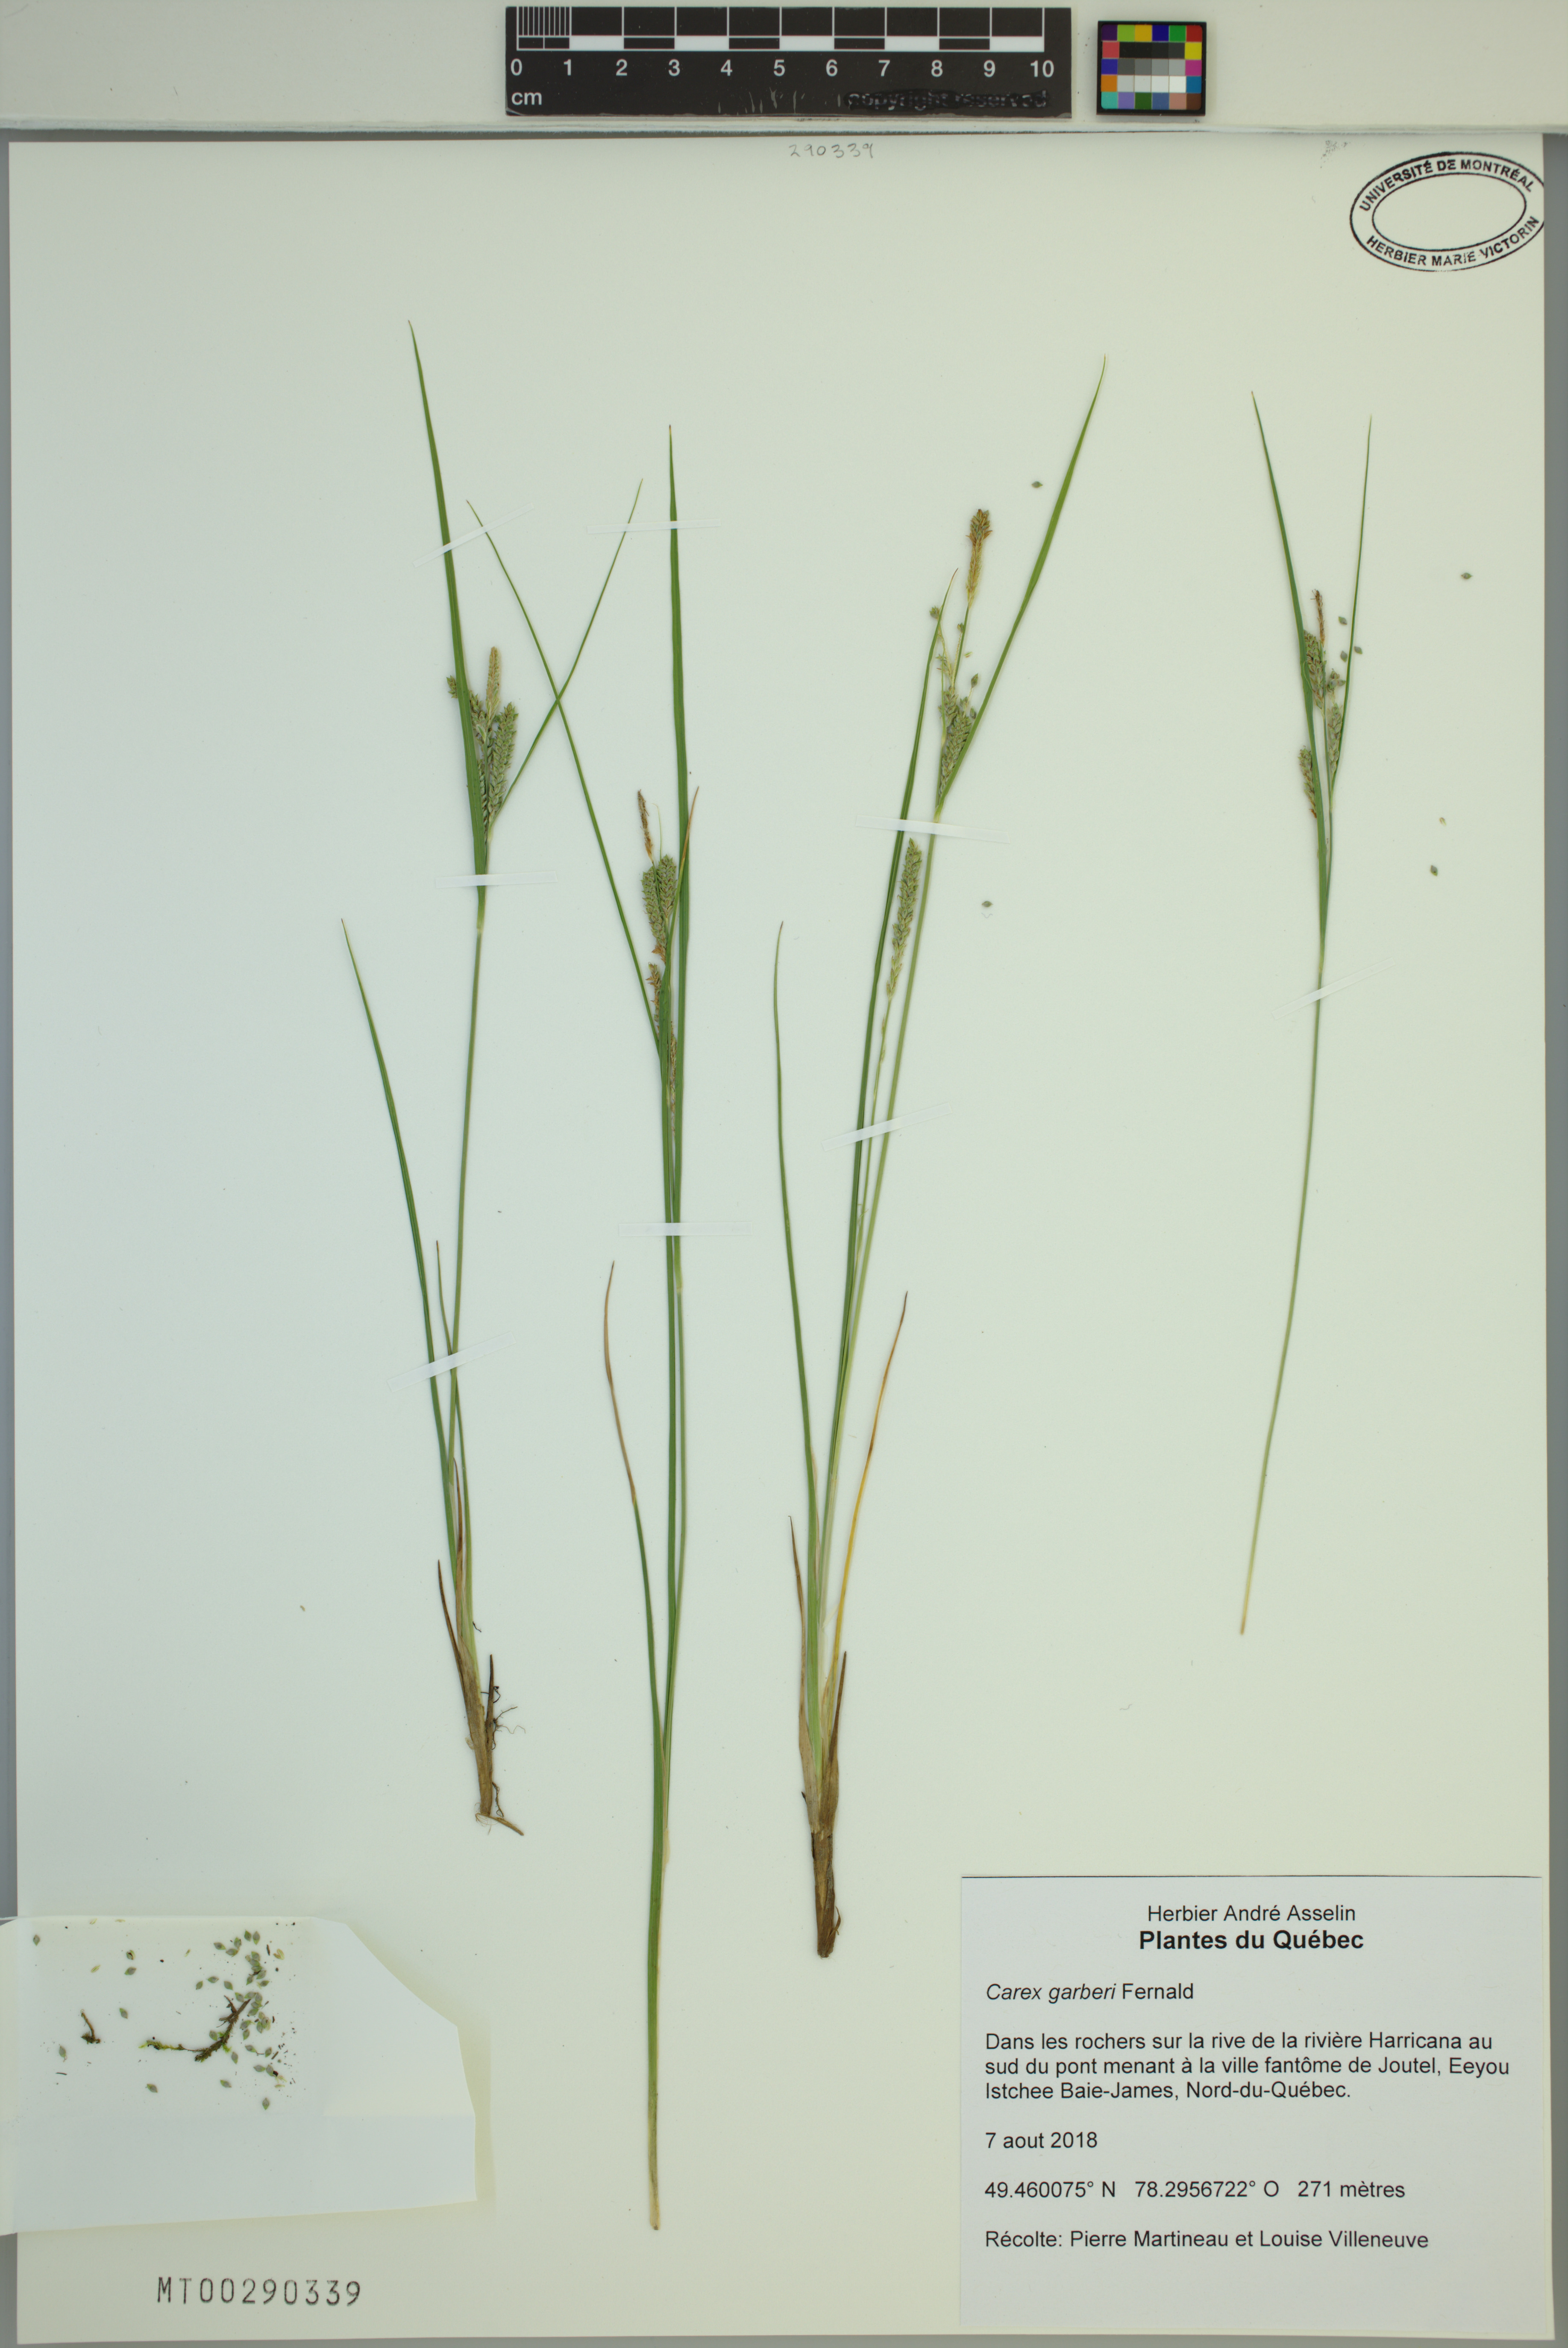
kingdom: Plantae
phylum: Tracheophyta
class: Liliopsida
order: Poales
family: Cyperaceae
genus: Carex
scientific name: Carex garberi
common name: Elk sedge
